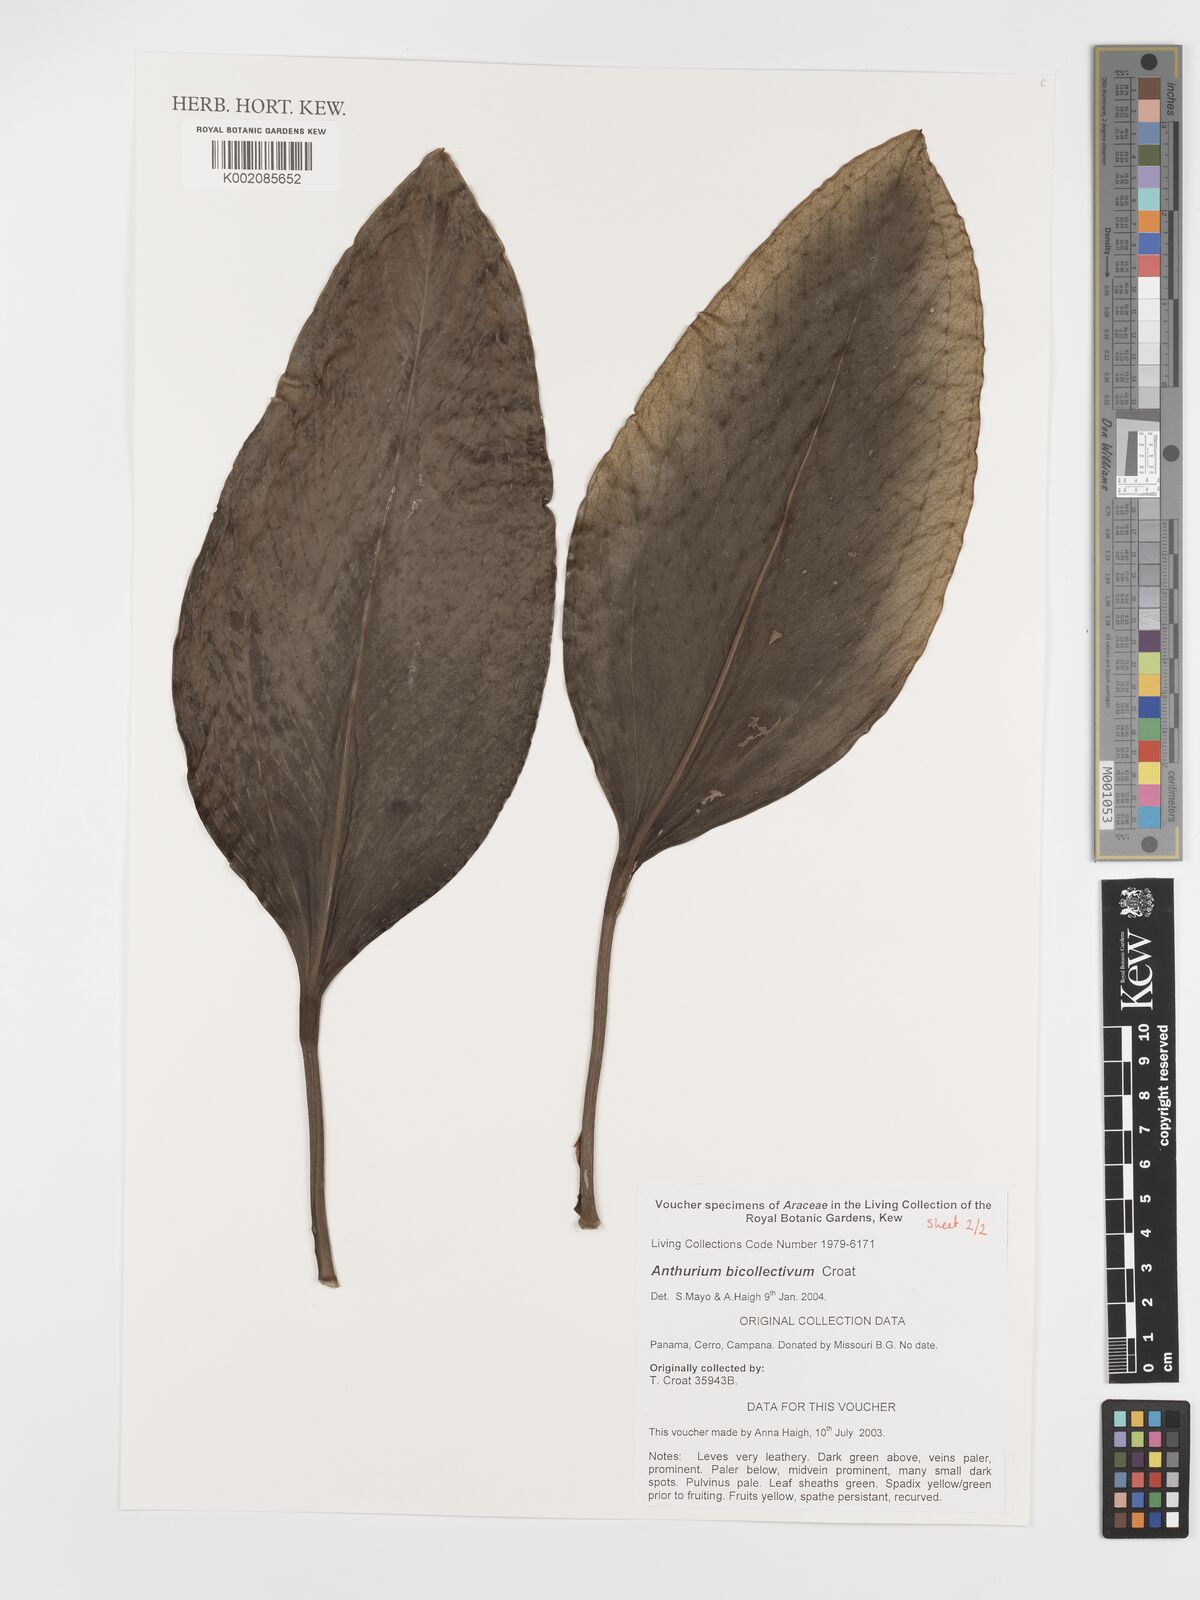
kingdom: Plantae
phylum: Tracheophyta
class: Liliopsida
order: Alismatales
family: Araceae
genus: Anthurium
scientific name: Anthurium durandii
